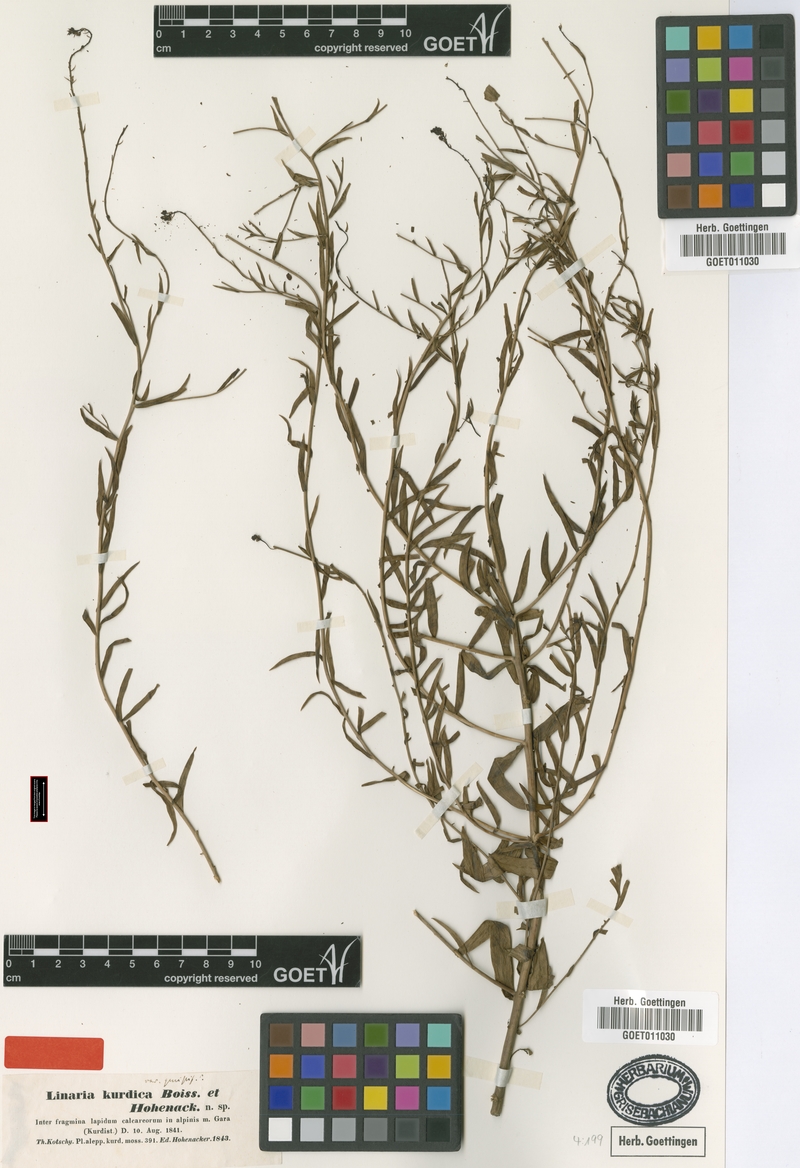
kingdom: Plantae
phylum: Tracheophyta
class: Magnoliopsida
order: Lamiales
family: Plantaginaceae
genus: Linaria
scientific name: Linaria kurdica
